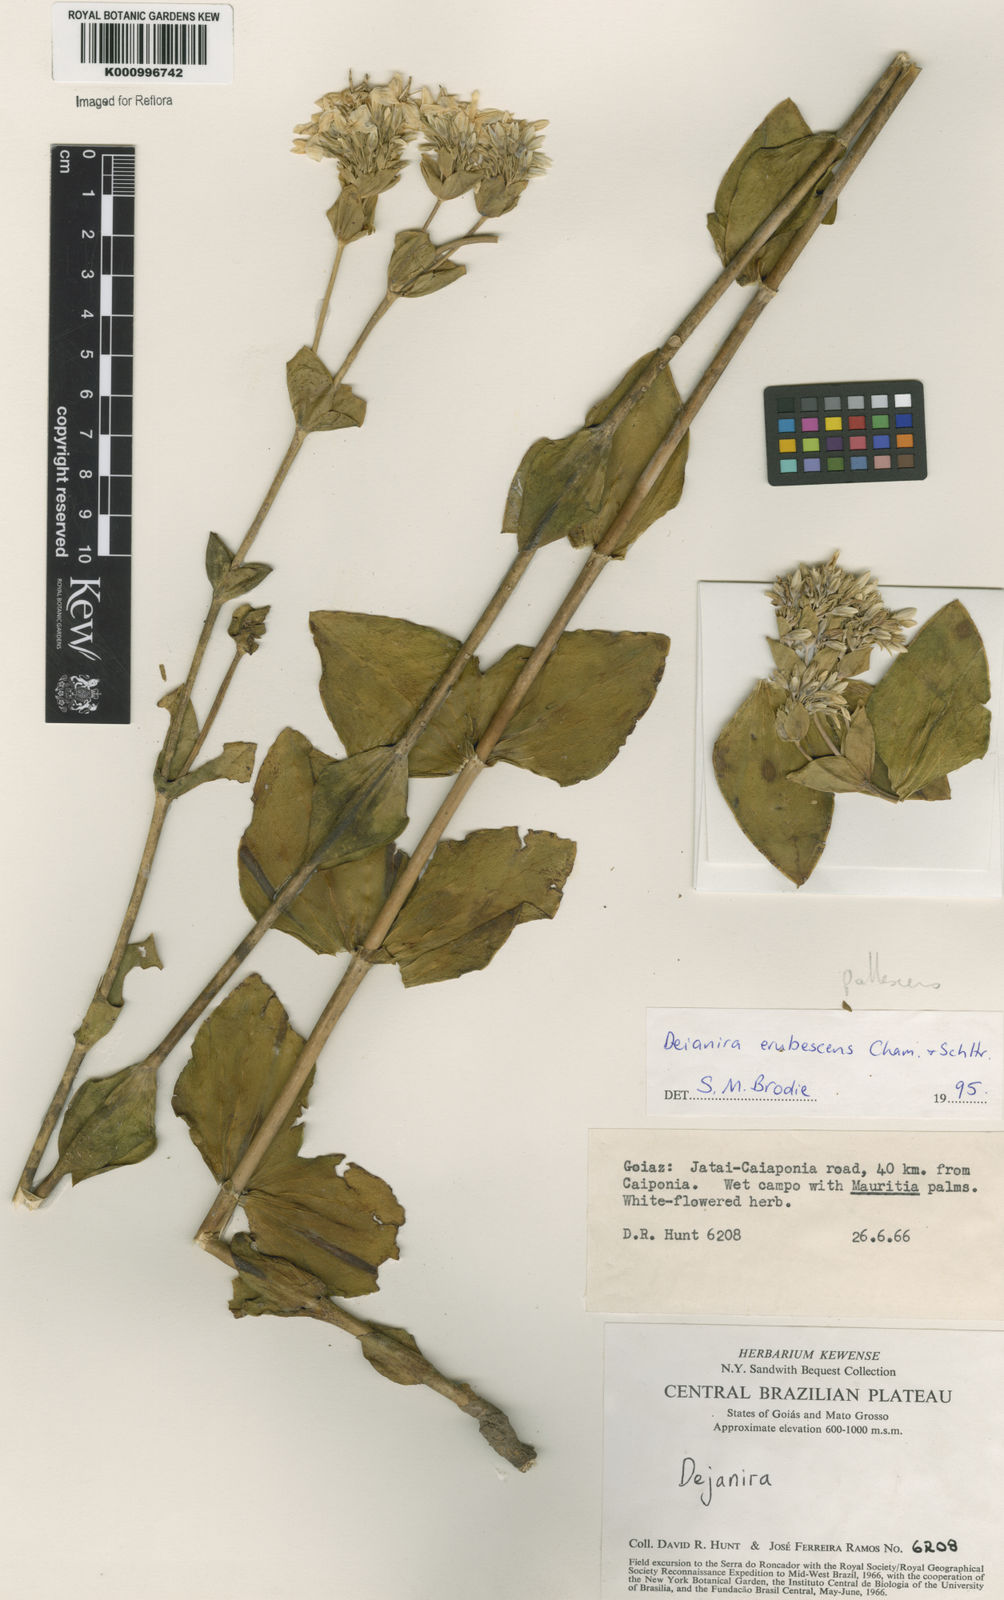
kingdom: Plantae
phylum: Tracheophyta
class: Magnoliopsida
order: Gentianales
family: Gentianaceae
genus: Deianira
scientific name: Deianira pallescens
